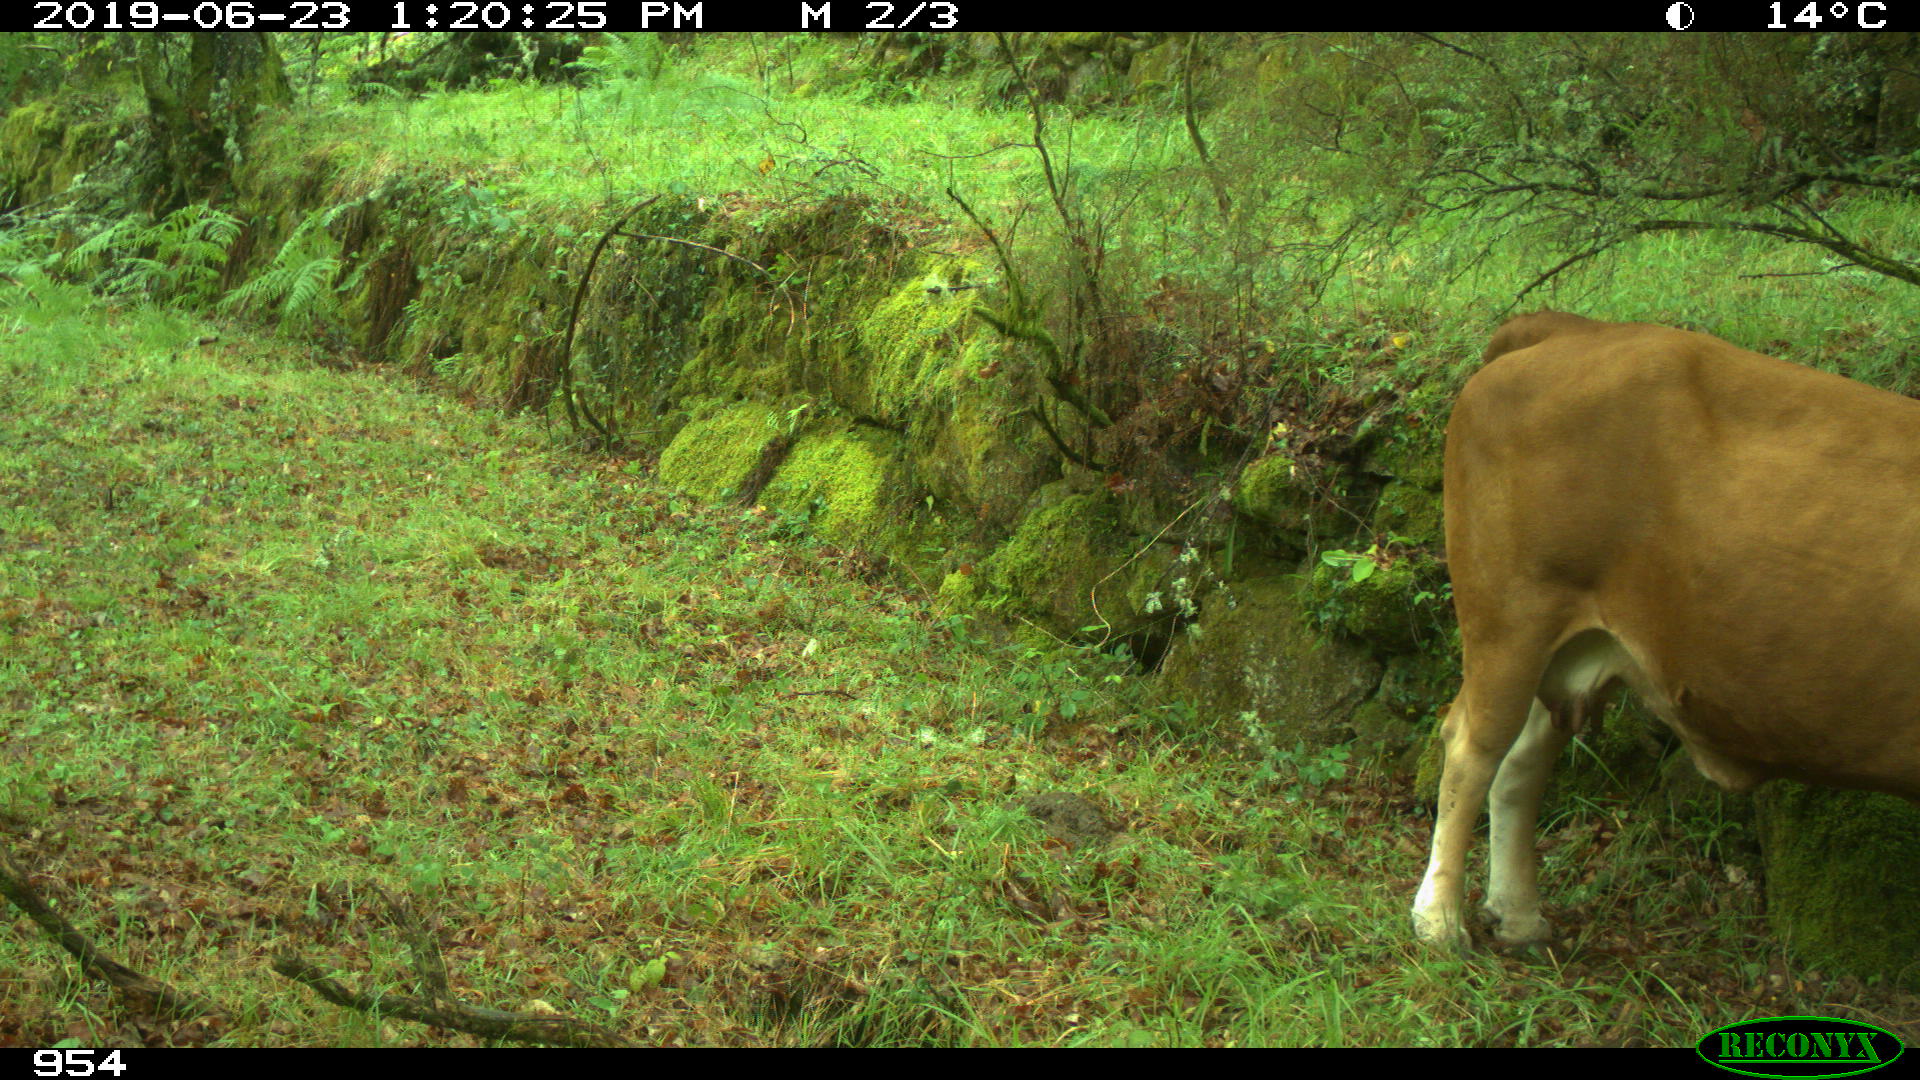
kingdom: Animalia
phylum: Chordata
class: Mammalia
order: Artiodactyla
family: Bovidae
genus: Bos
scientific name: Bos taurus
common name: Domesticated cattle
